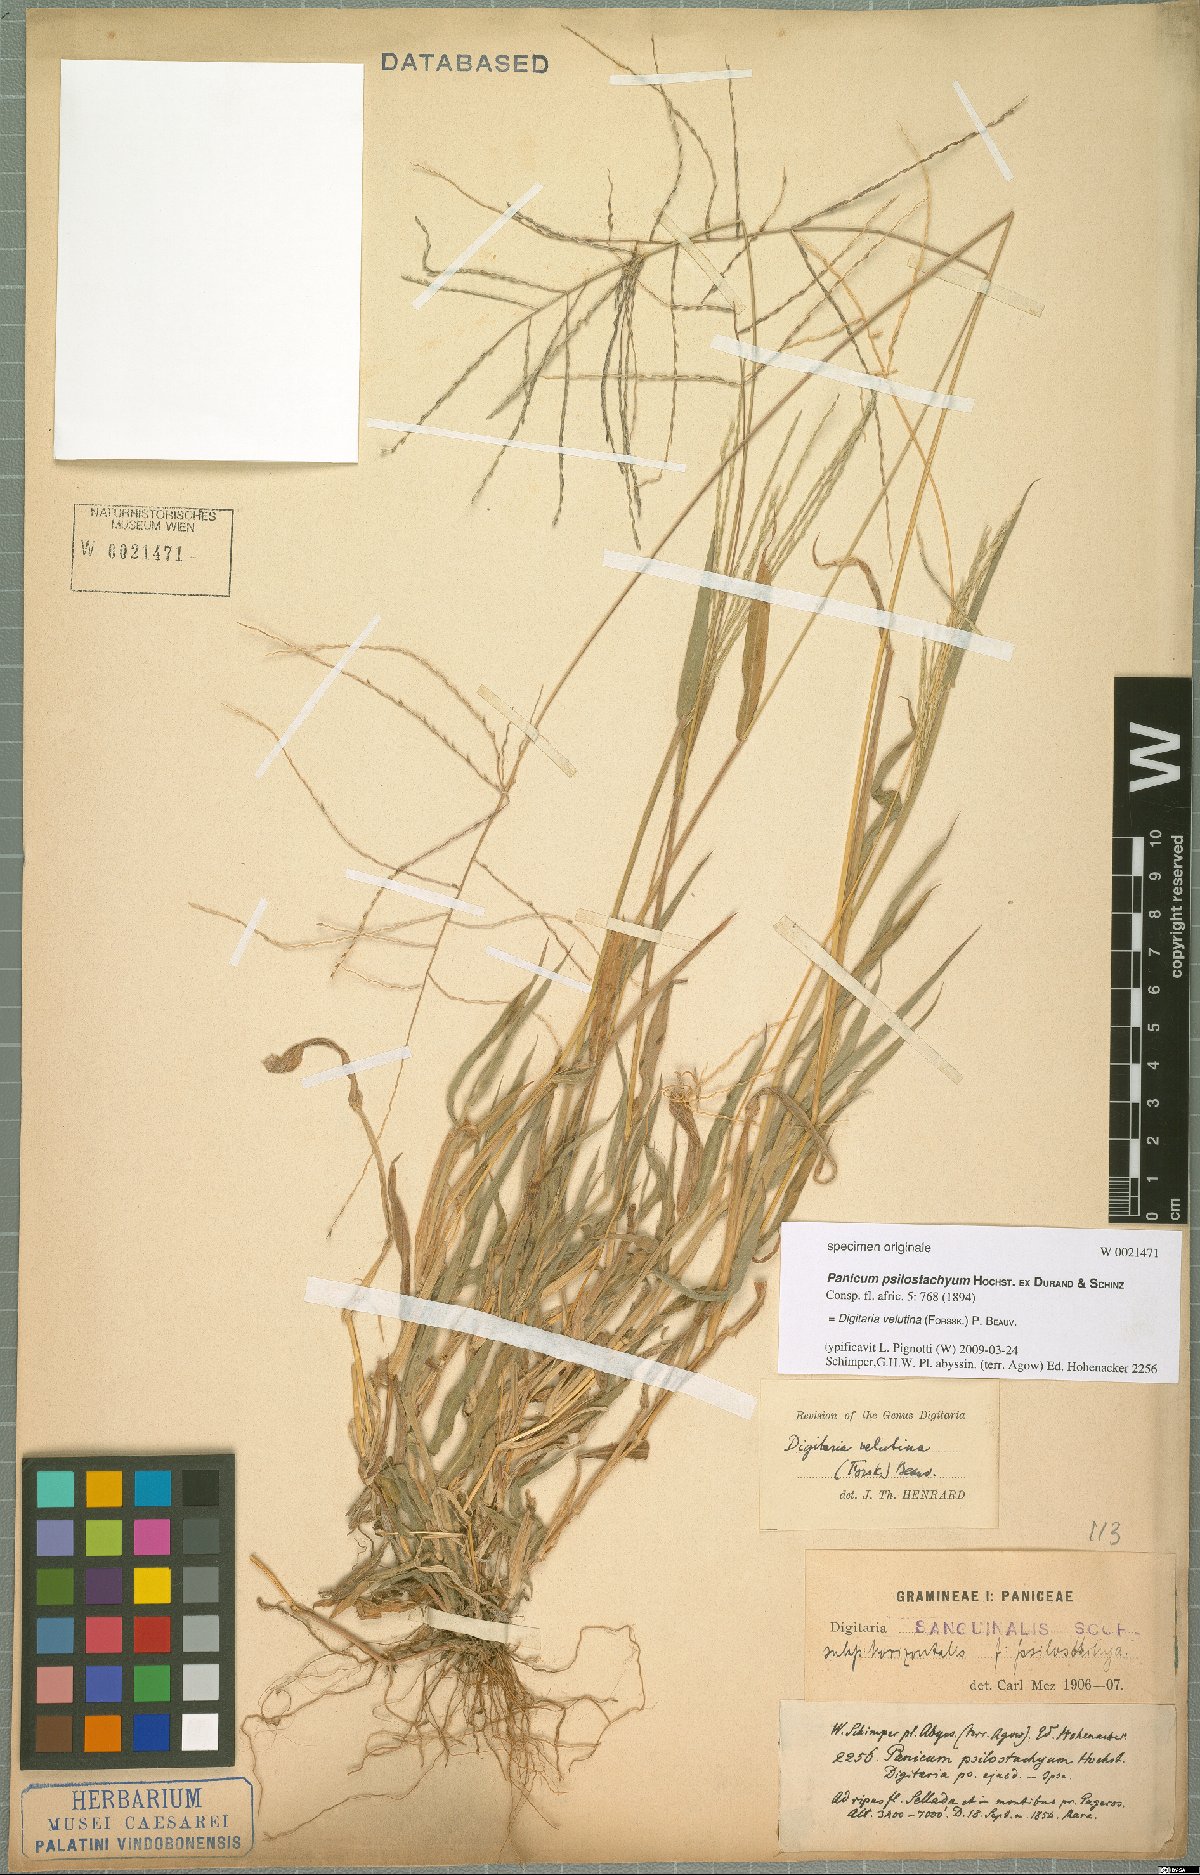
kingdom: Plantae
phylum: Tracheophyta
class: Liliopsida
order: Poales
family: Poaceae
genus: Digitaria
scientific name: Digitaria velutina
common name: Long-plume finger grass
